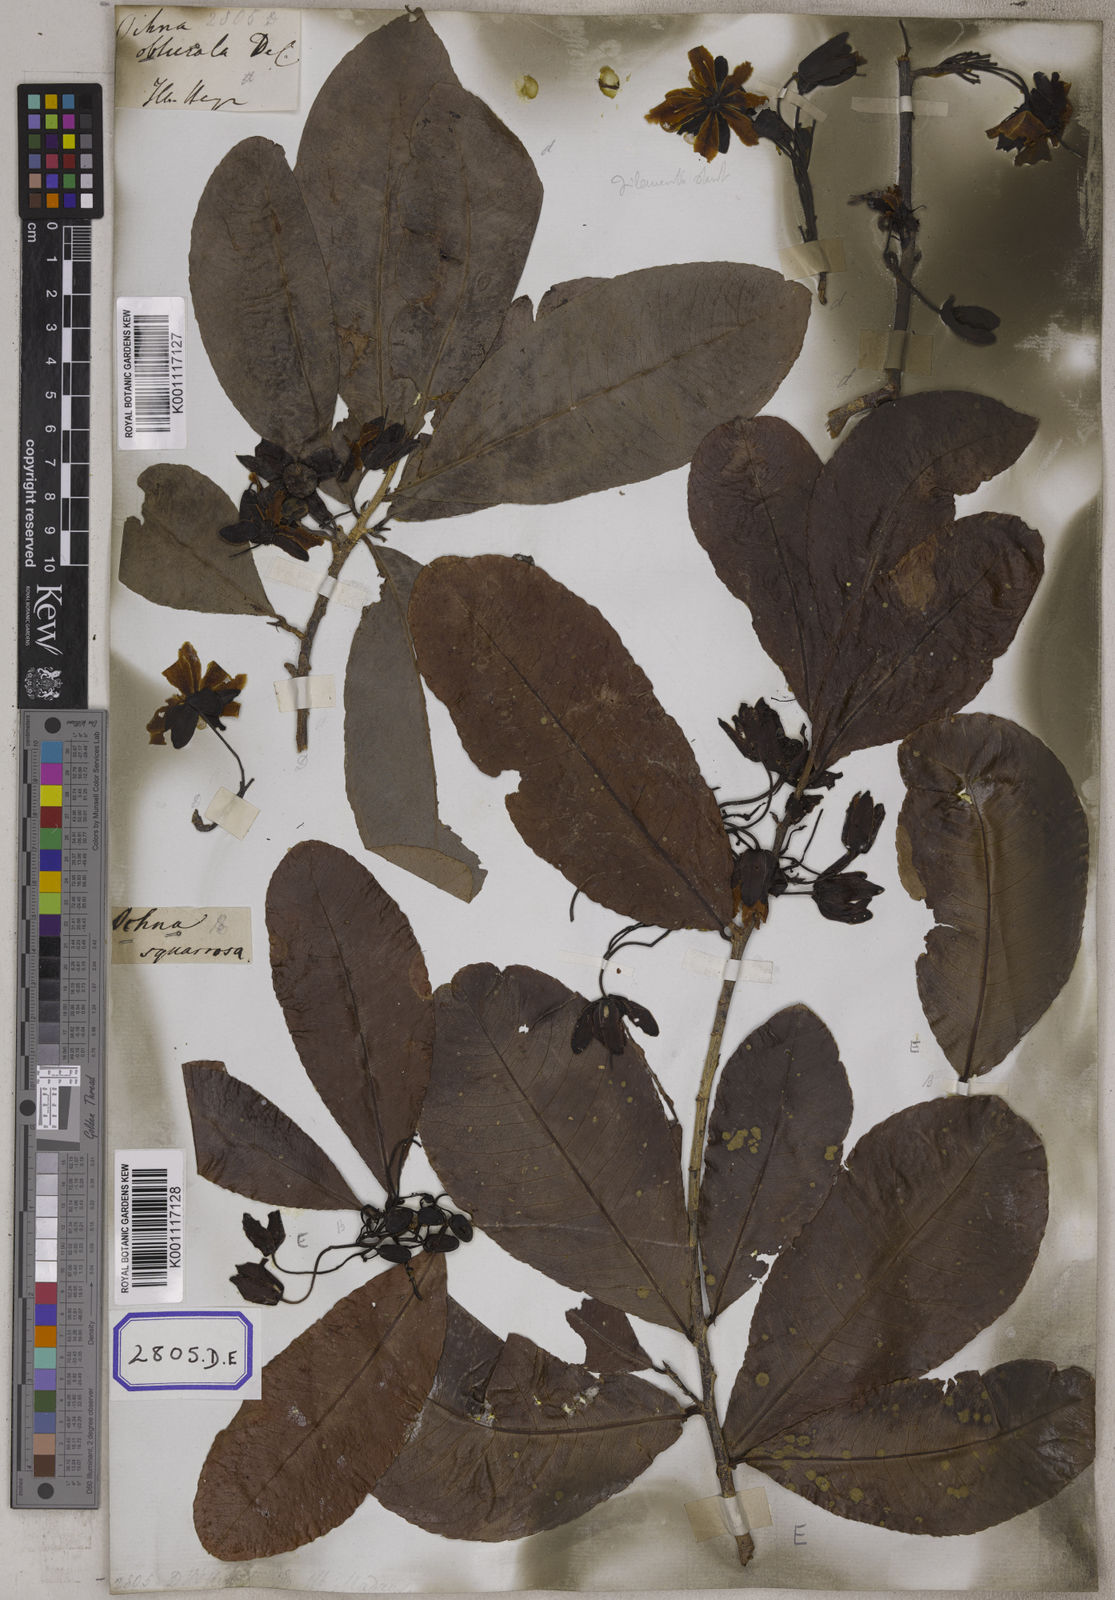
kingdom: Plantae
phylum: Tracheophyta
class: Magnoliopsida
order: Malpighiales
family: Ochnaceae
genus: Ochna
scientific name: Ochna obtusata
